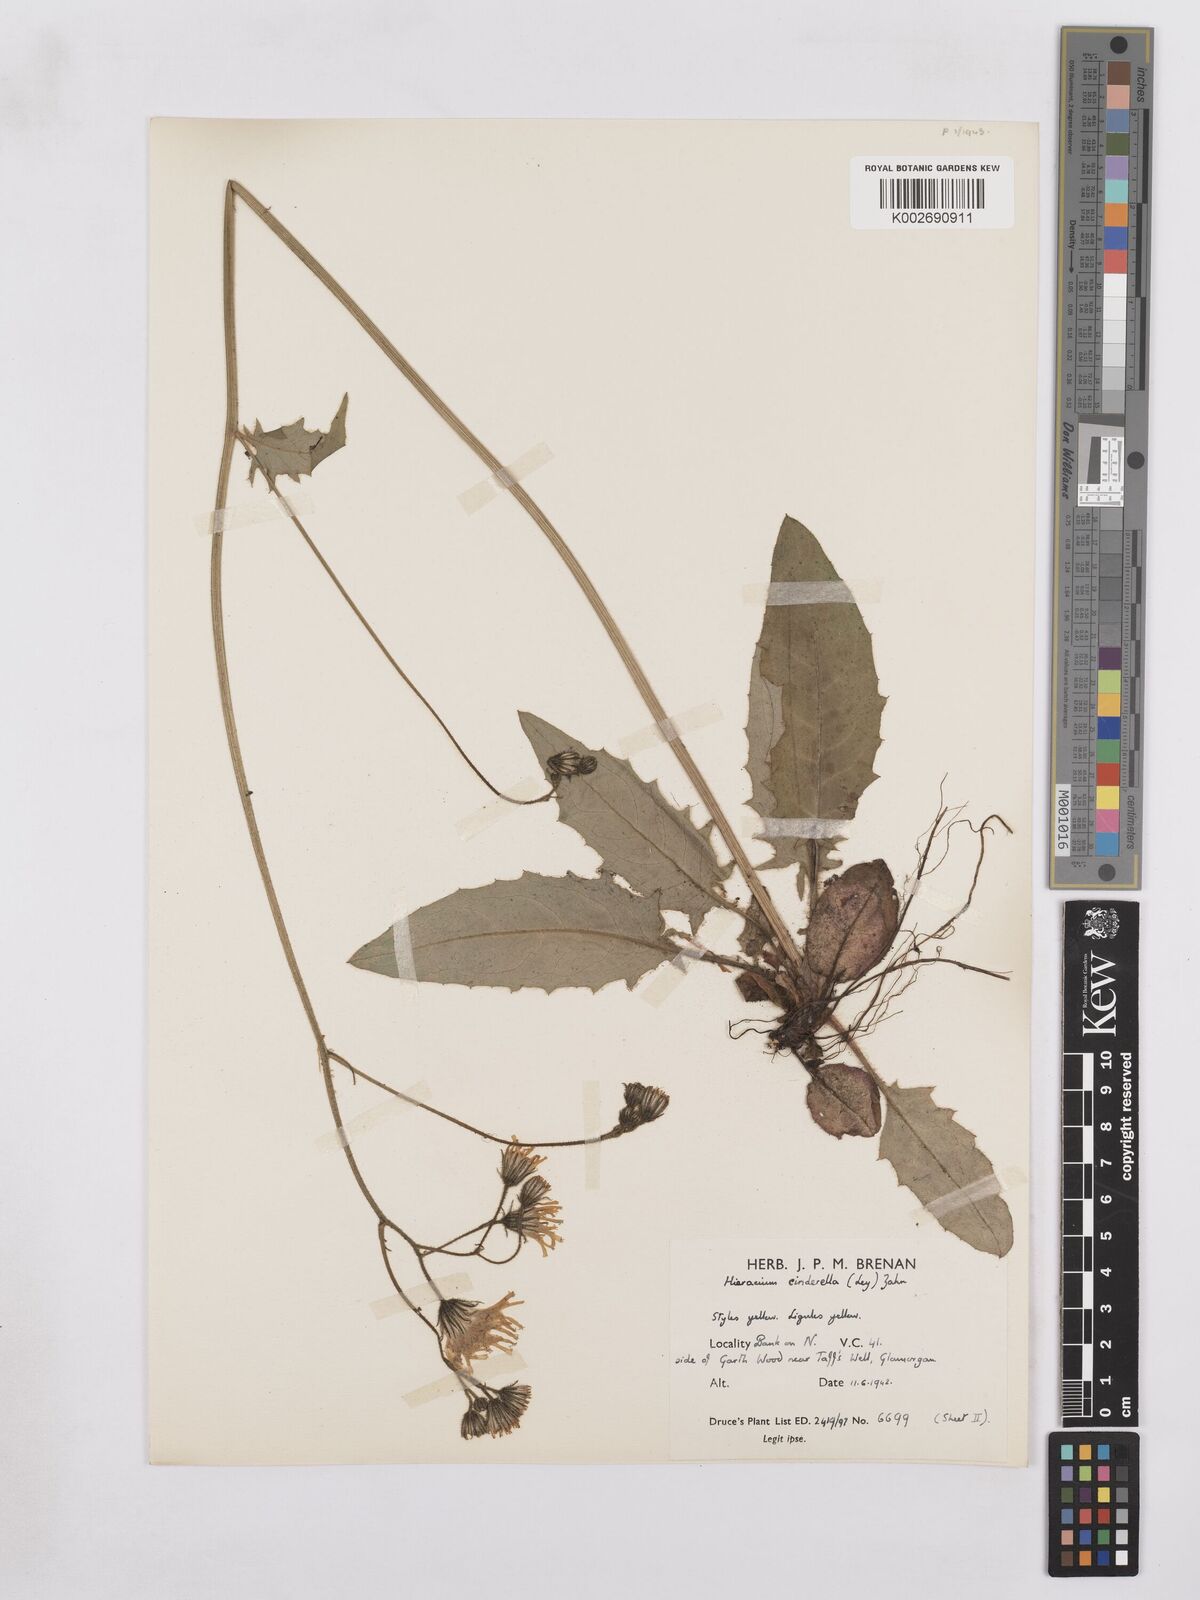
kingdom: Plantae
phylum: Tracheophyta
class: Magnoliopsida
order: Asterales
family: Asteraceae
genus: Hieracium
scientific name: Hieracium murorum
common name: Wall hawkweed
